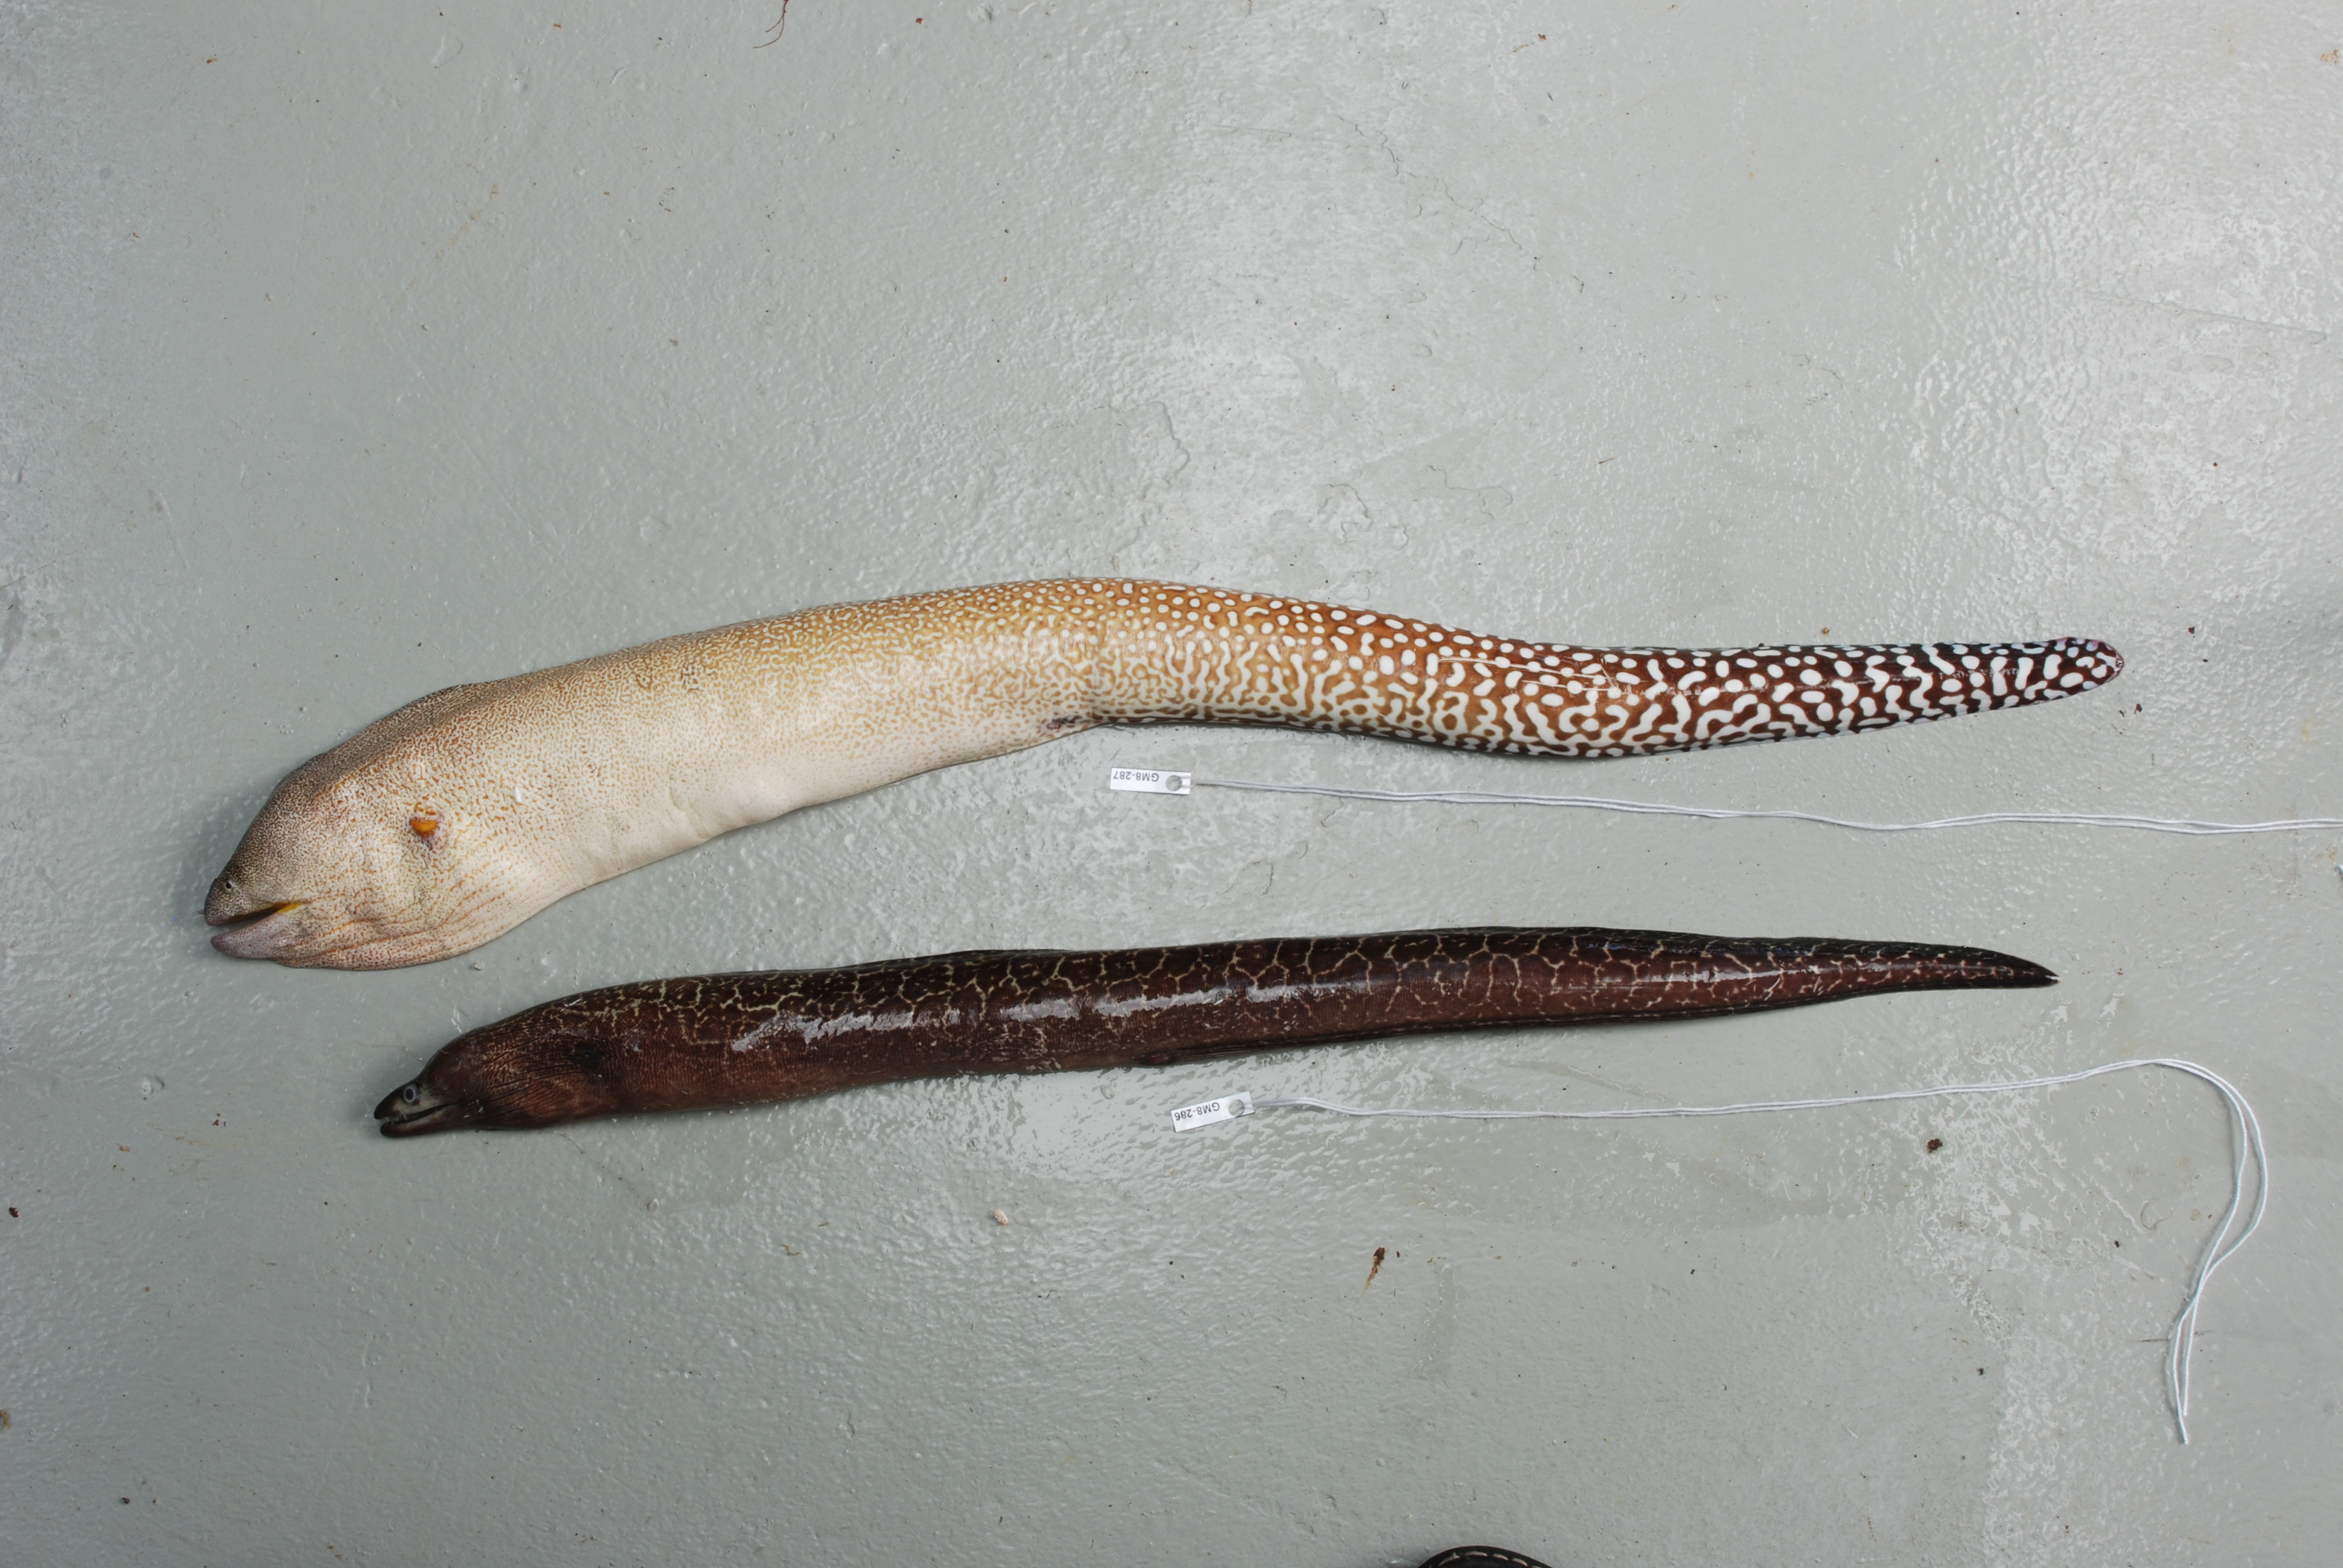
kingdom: Animalia
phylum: Chordata
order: Anguilliformes
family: Muraenidae
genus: Gymnothorax
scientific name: Gymnothorax nudivomer
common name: Yellowmouth moray
